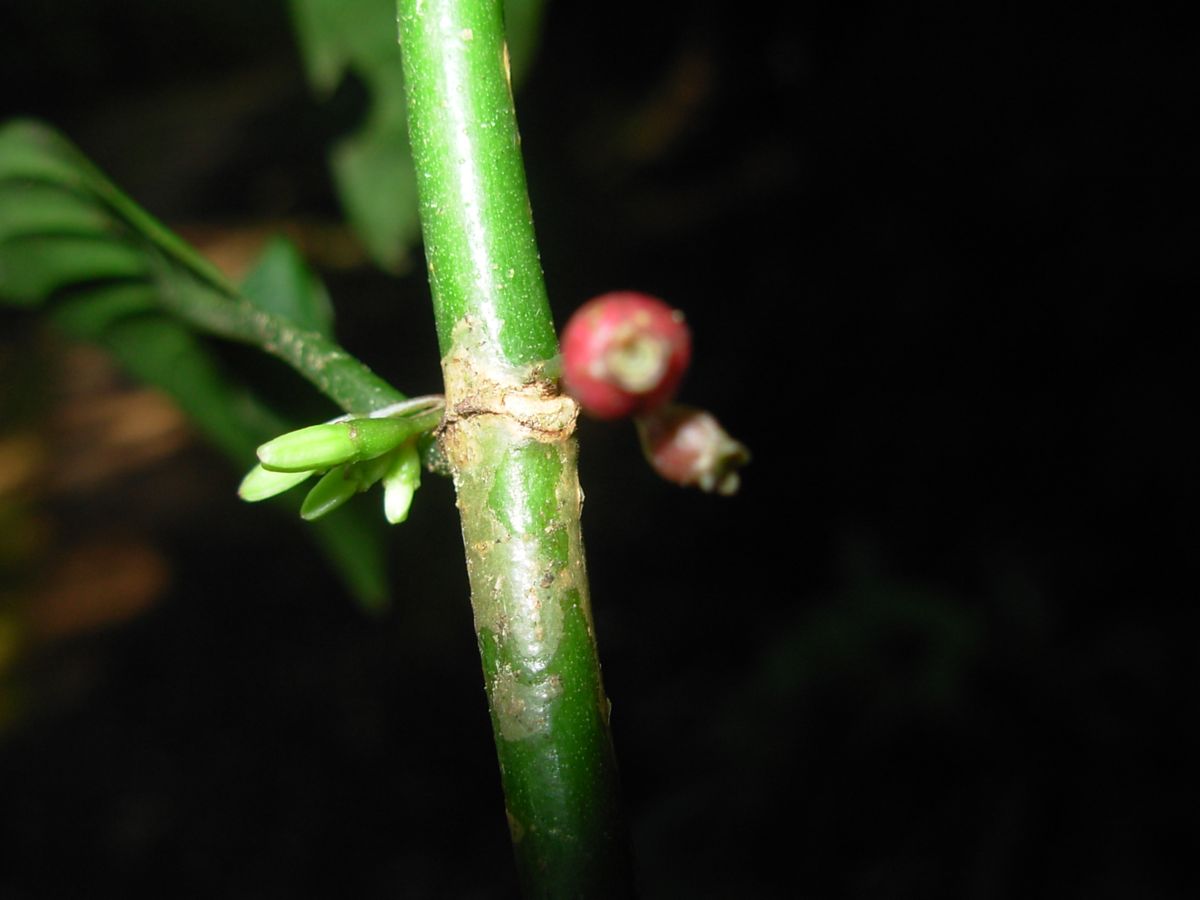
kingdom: Plantae
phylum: Tracheophyta
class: Magnoliopsida
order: Gentianales
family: Rubiaceae
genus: Hoffmannia
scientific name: Hoffmannia nicotianifolia
